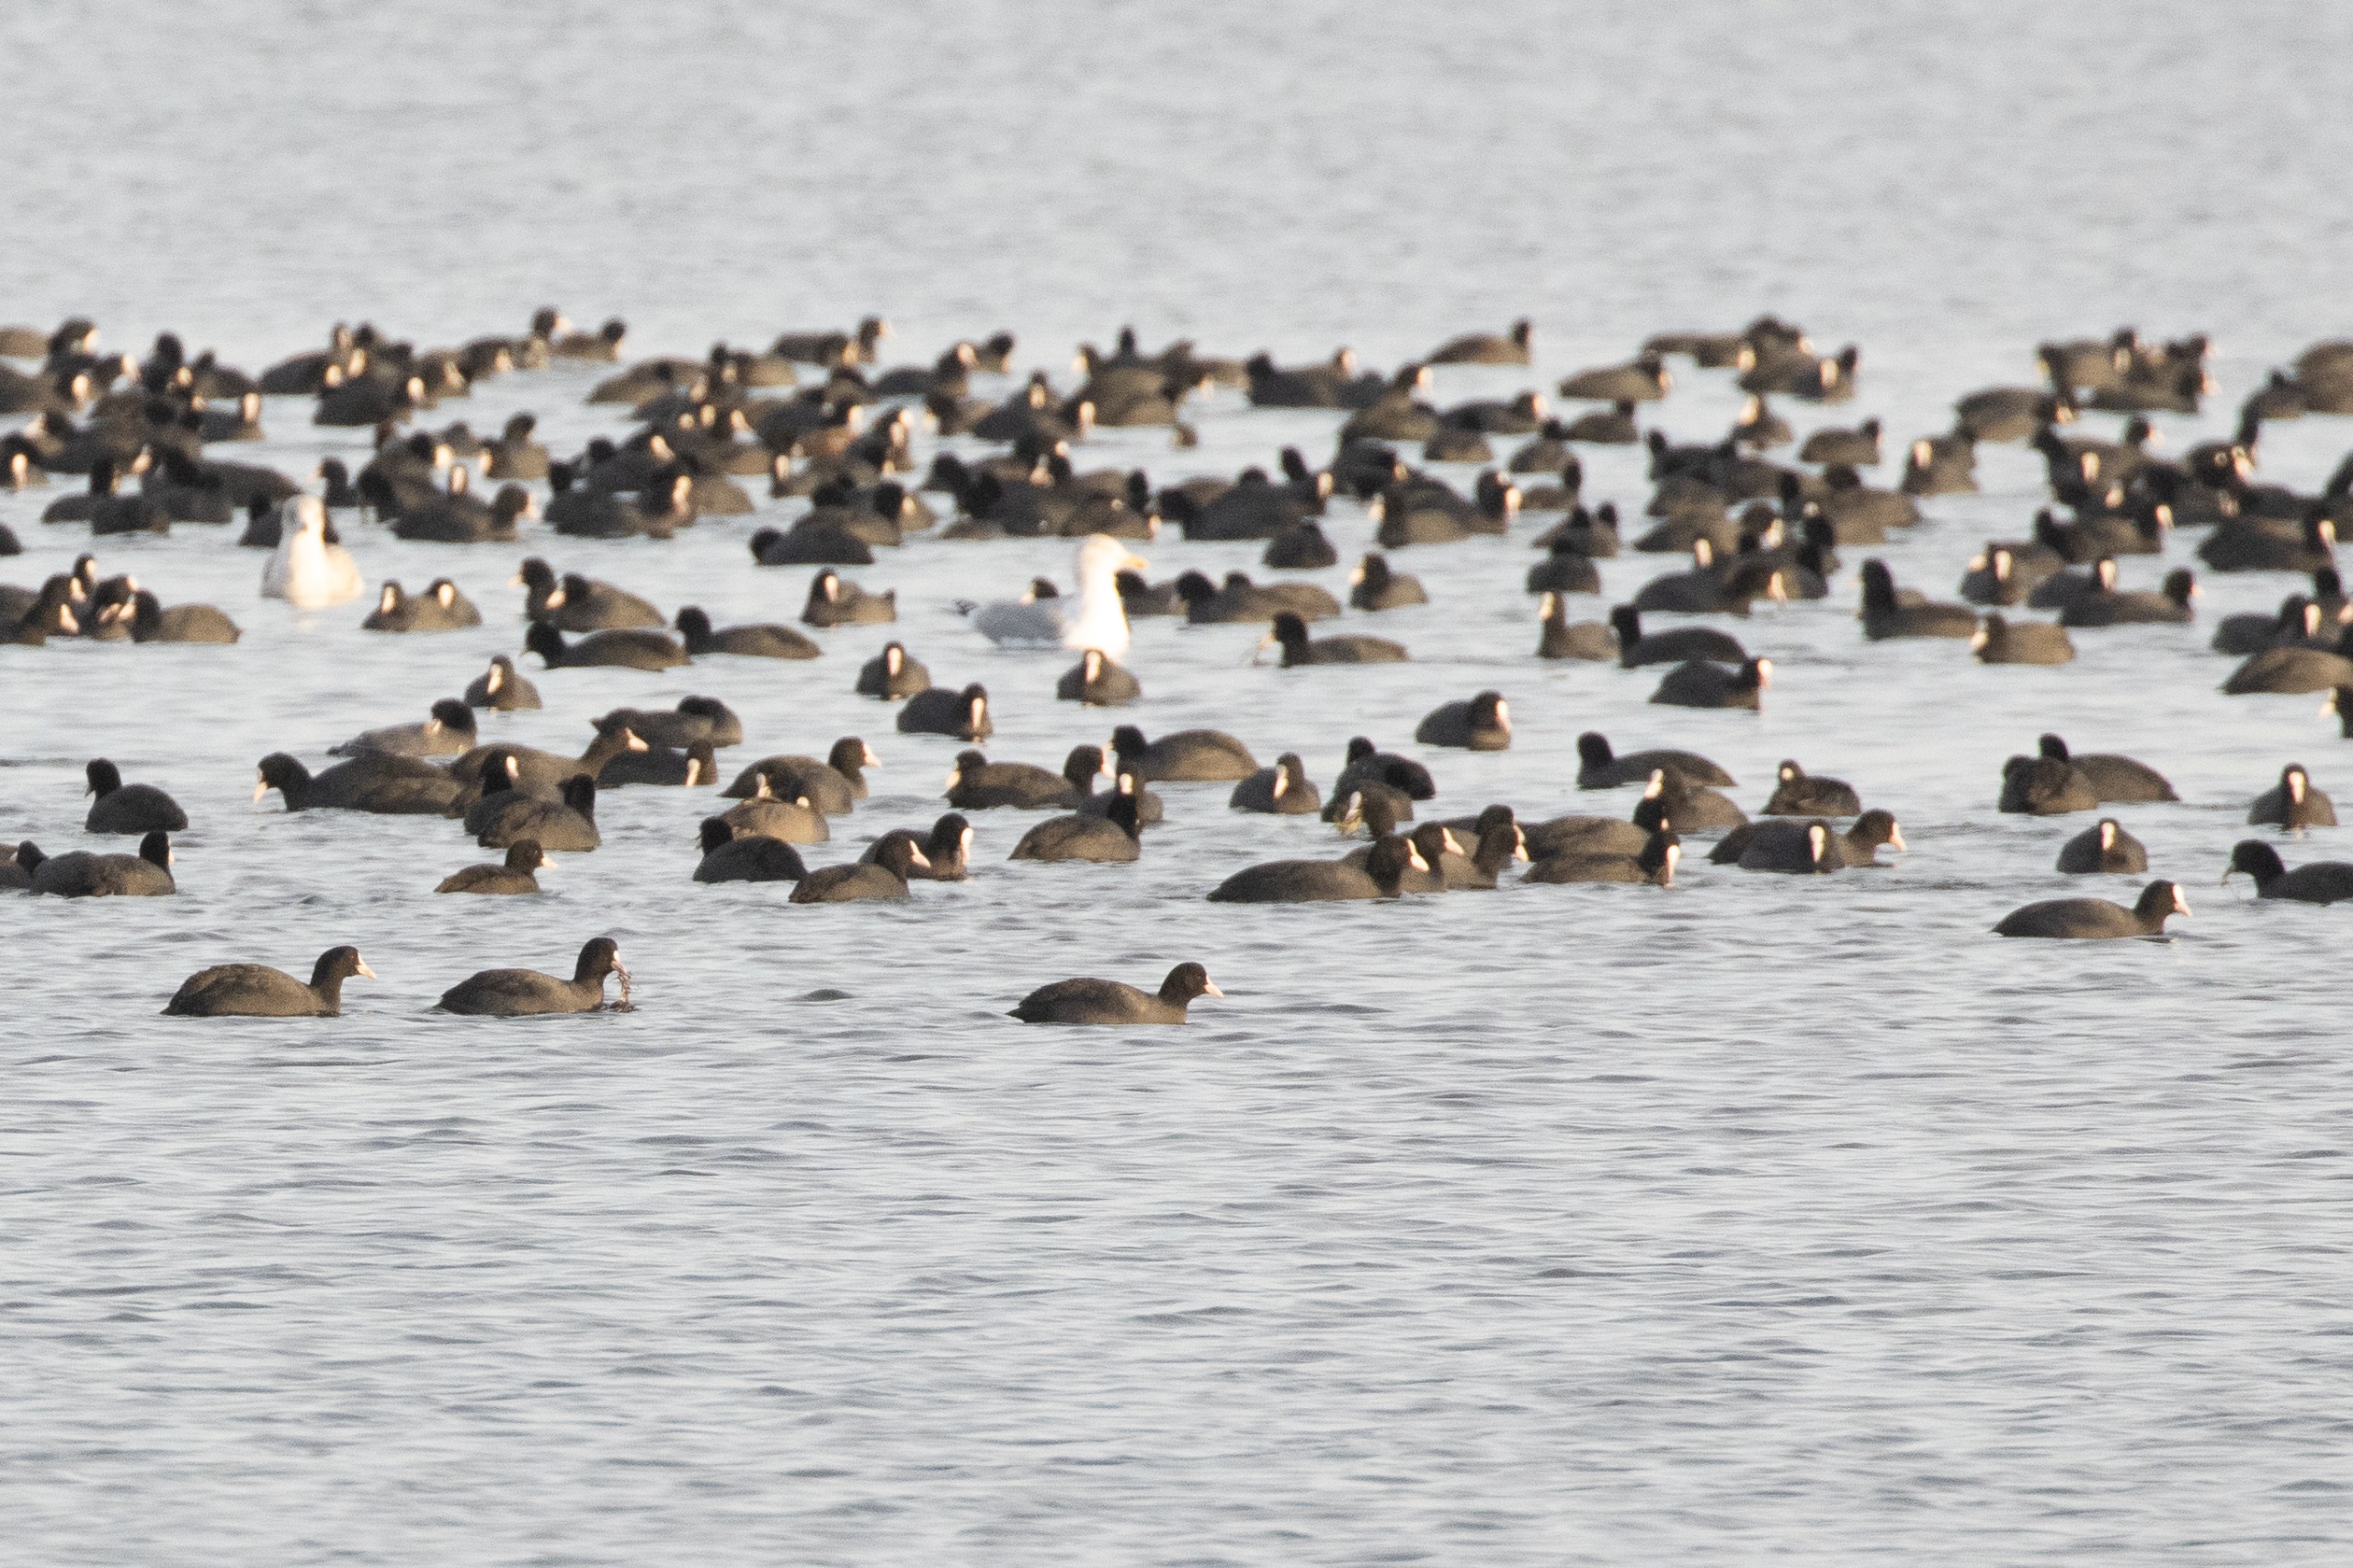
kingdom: Animalia
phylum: Chordata
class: Aves
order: Gruiformes
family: Rallidae
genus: Fulica
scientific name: Fulica atra
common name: Blishøne
